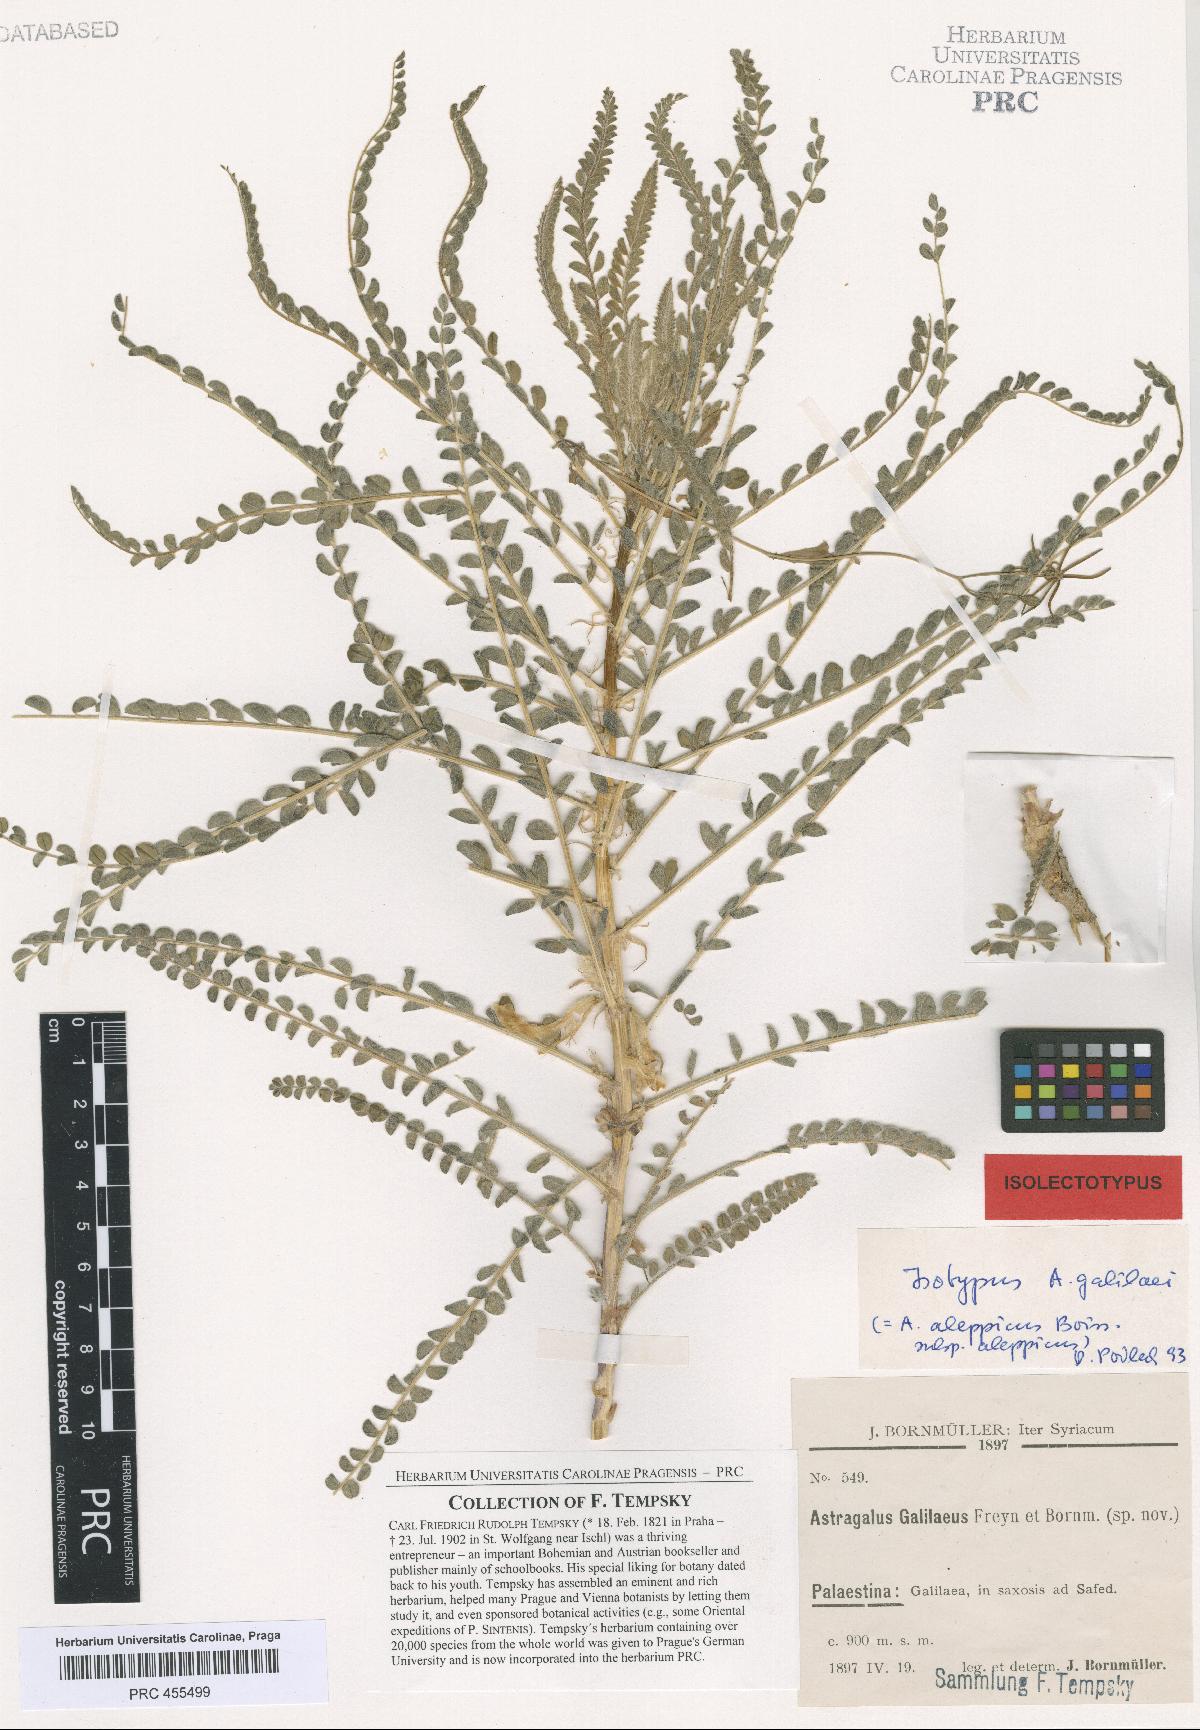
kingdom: Plantae
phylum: Tracheophyta
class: Magnoliopsida
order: Fabales
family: Fabaceae
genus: Astragalus
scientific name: Astragalus aleppicus
